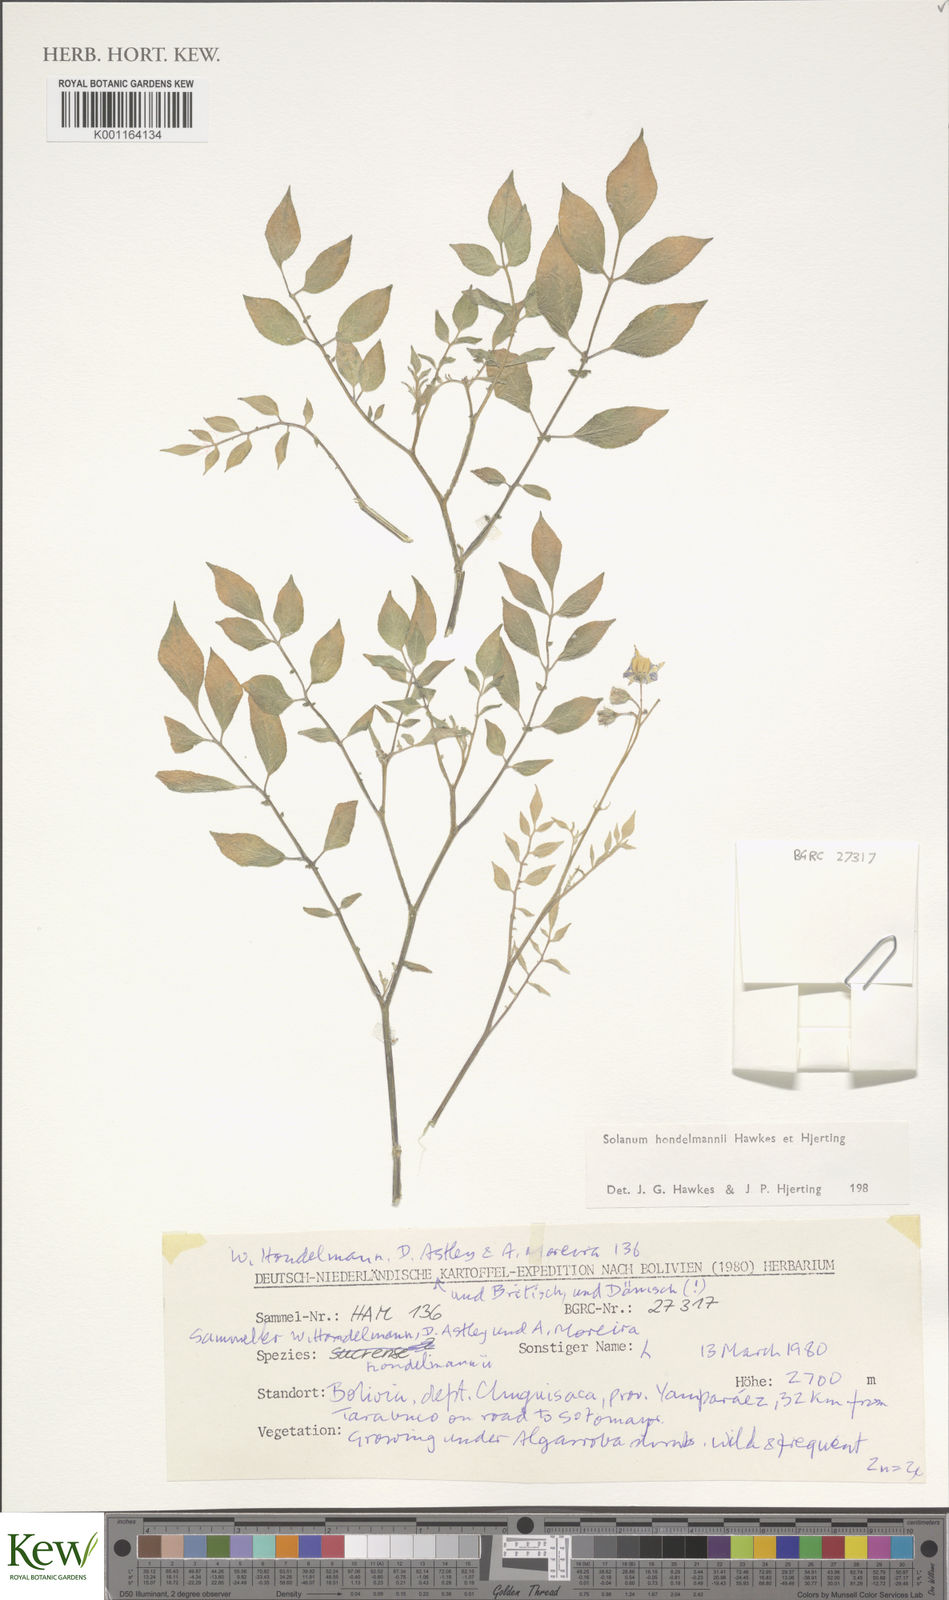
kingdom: Plantae
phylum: Tracheophyta
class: Magnoliopsida
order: Solanales
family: Solanaceae
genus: Solanum
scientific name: Solanum brevicaule
